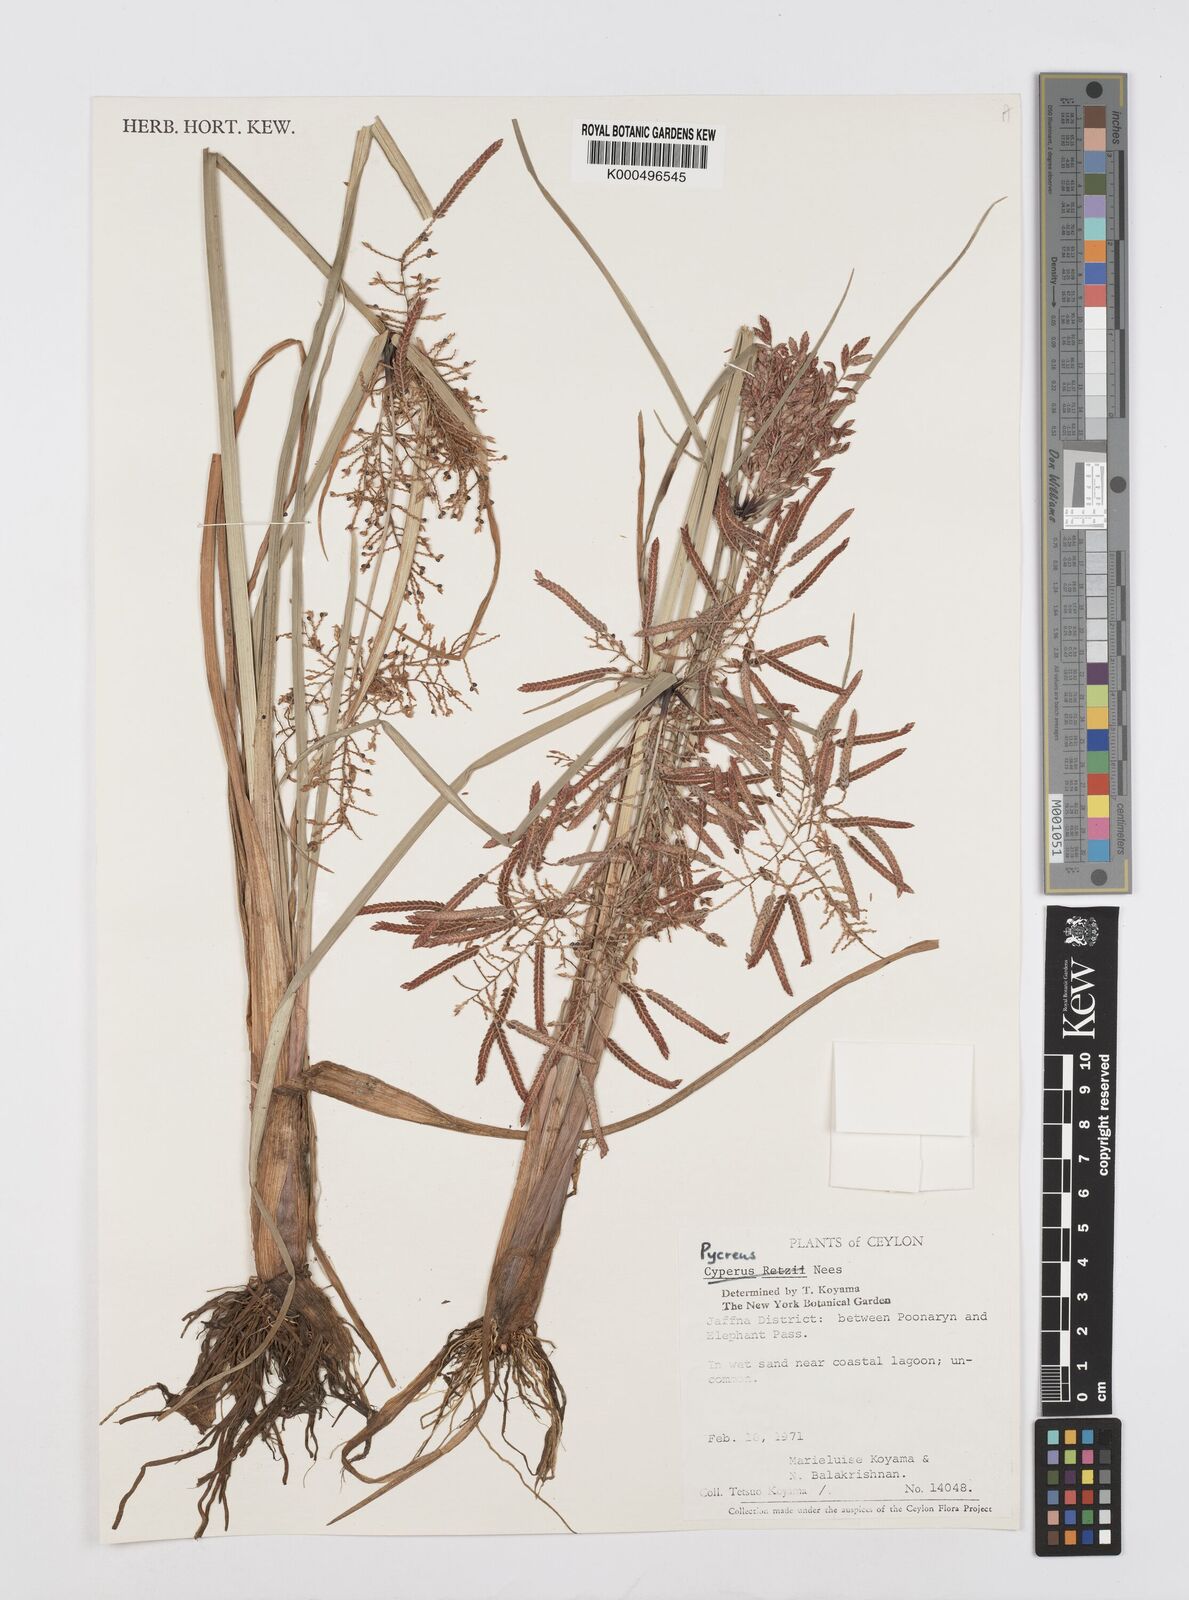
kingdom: Plantae
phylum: Tracheophyta
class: Liliopsida
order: Poales
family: Cyperaceae
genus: Cyperus
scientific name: Cyperus puncticulatus
